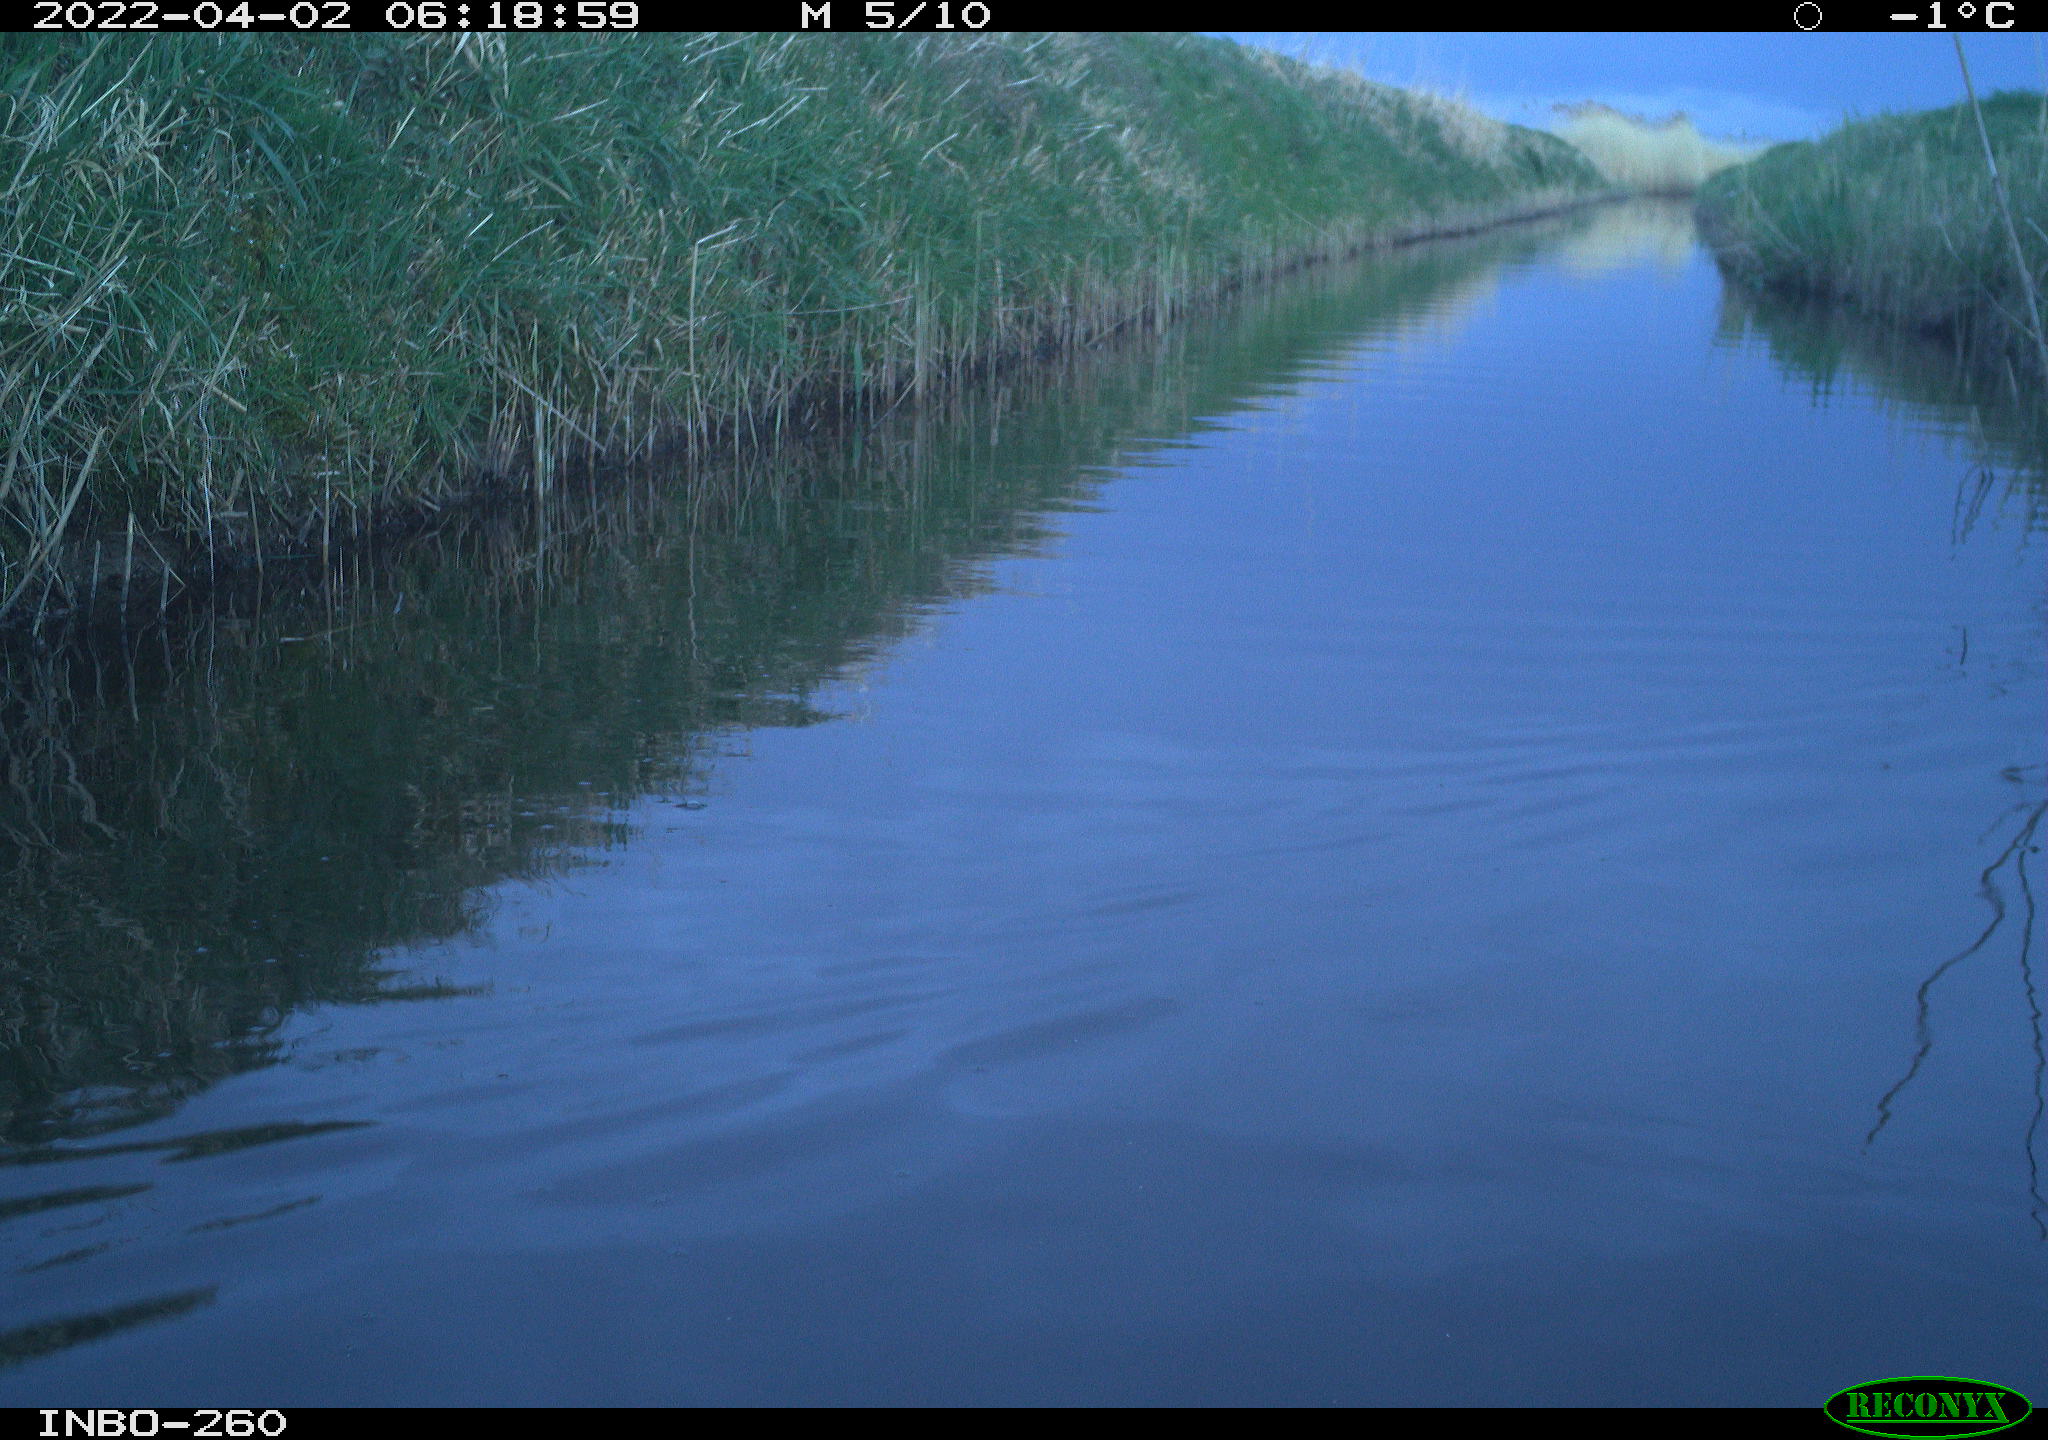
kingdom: Animalia
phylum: Chordata
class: Aves
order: Gruiformes
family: Rallidae
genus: Fulica
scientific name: Fulica atra
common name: Eurasian coot
